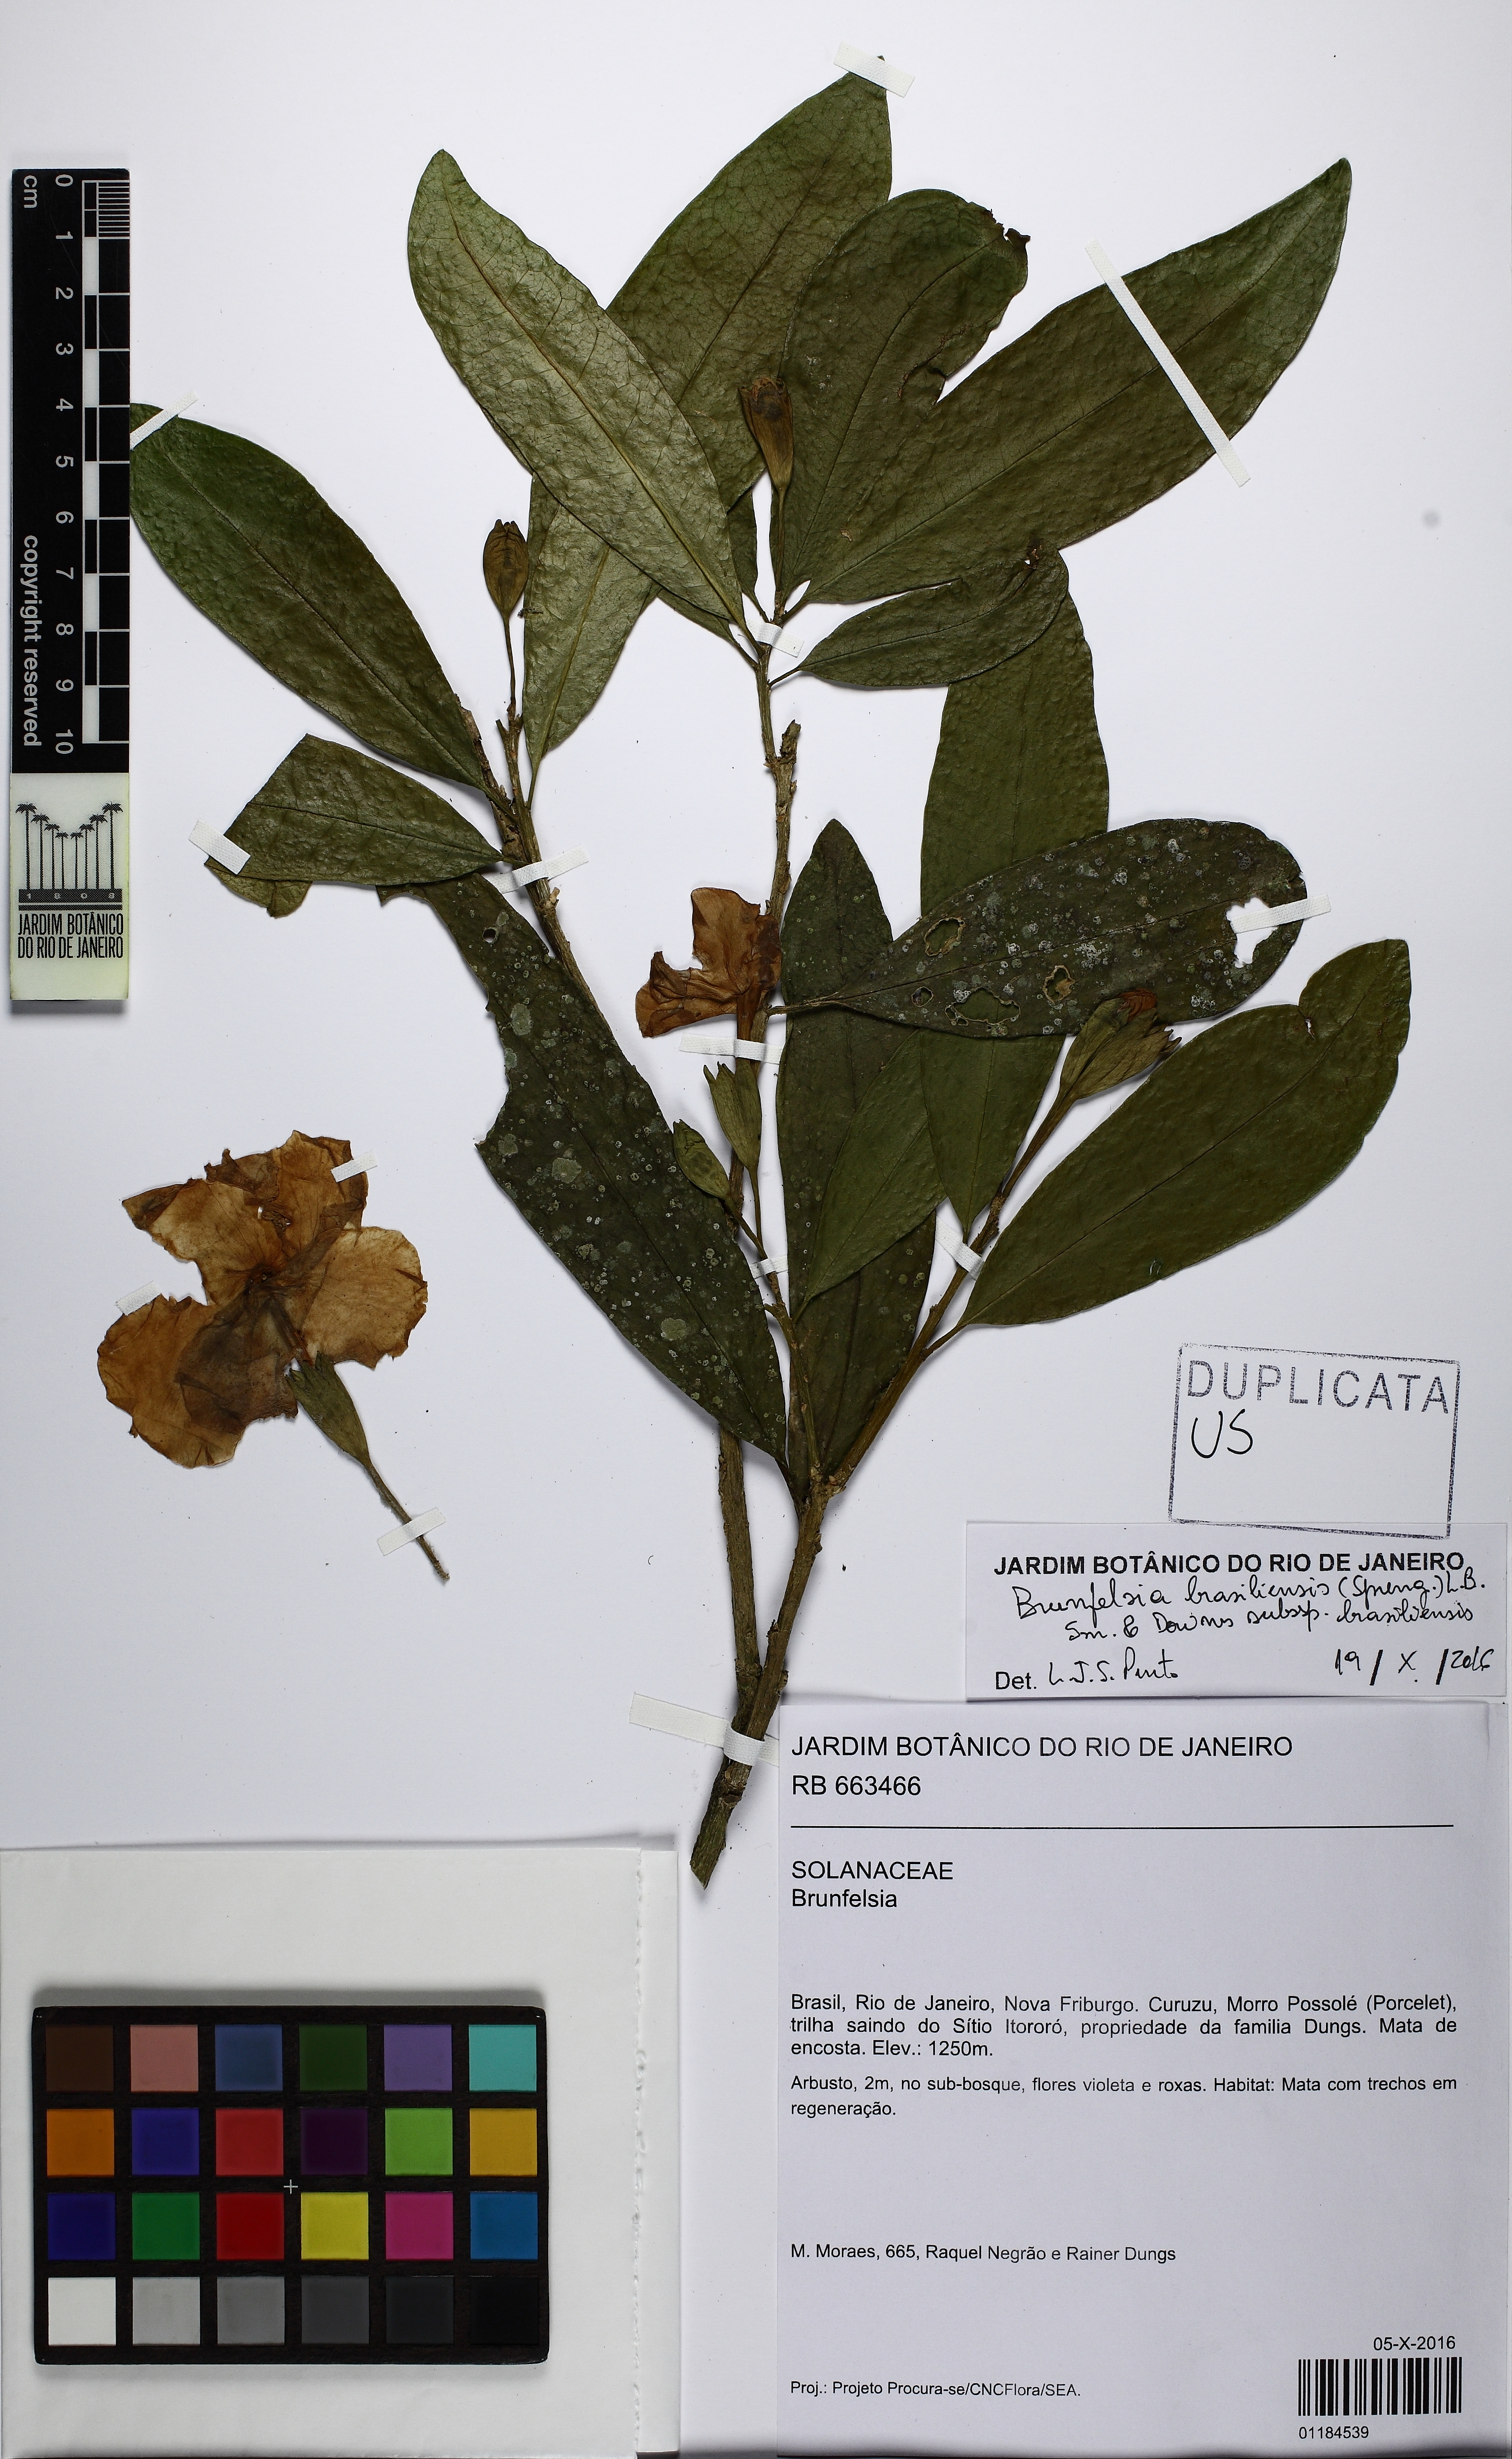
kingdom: Plantae
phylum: Tracheophyta
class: Magnoliopsida
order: Solanales
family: Solanaceae
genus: Brunfelsia
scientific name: Brunfelsia pauciflora
